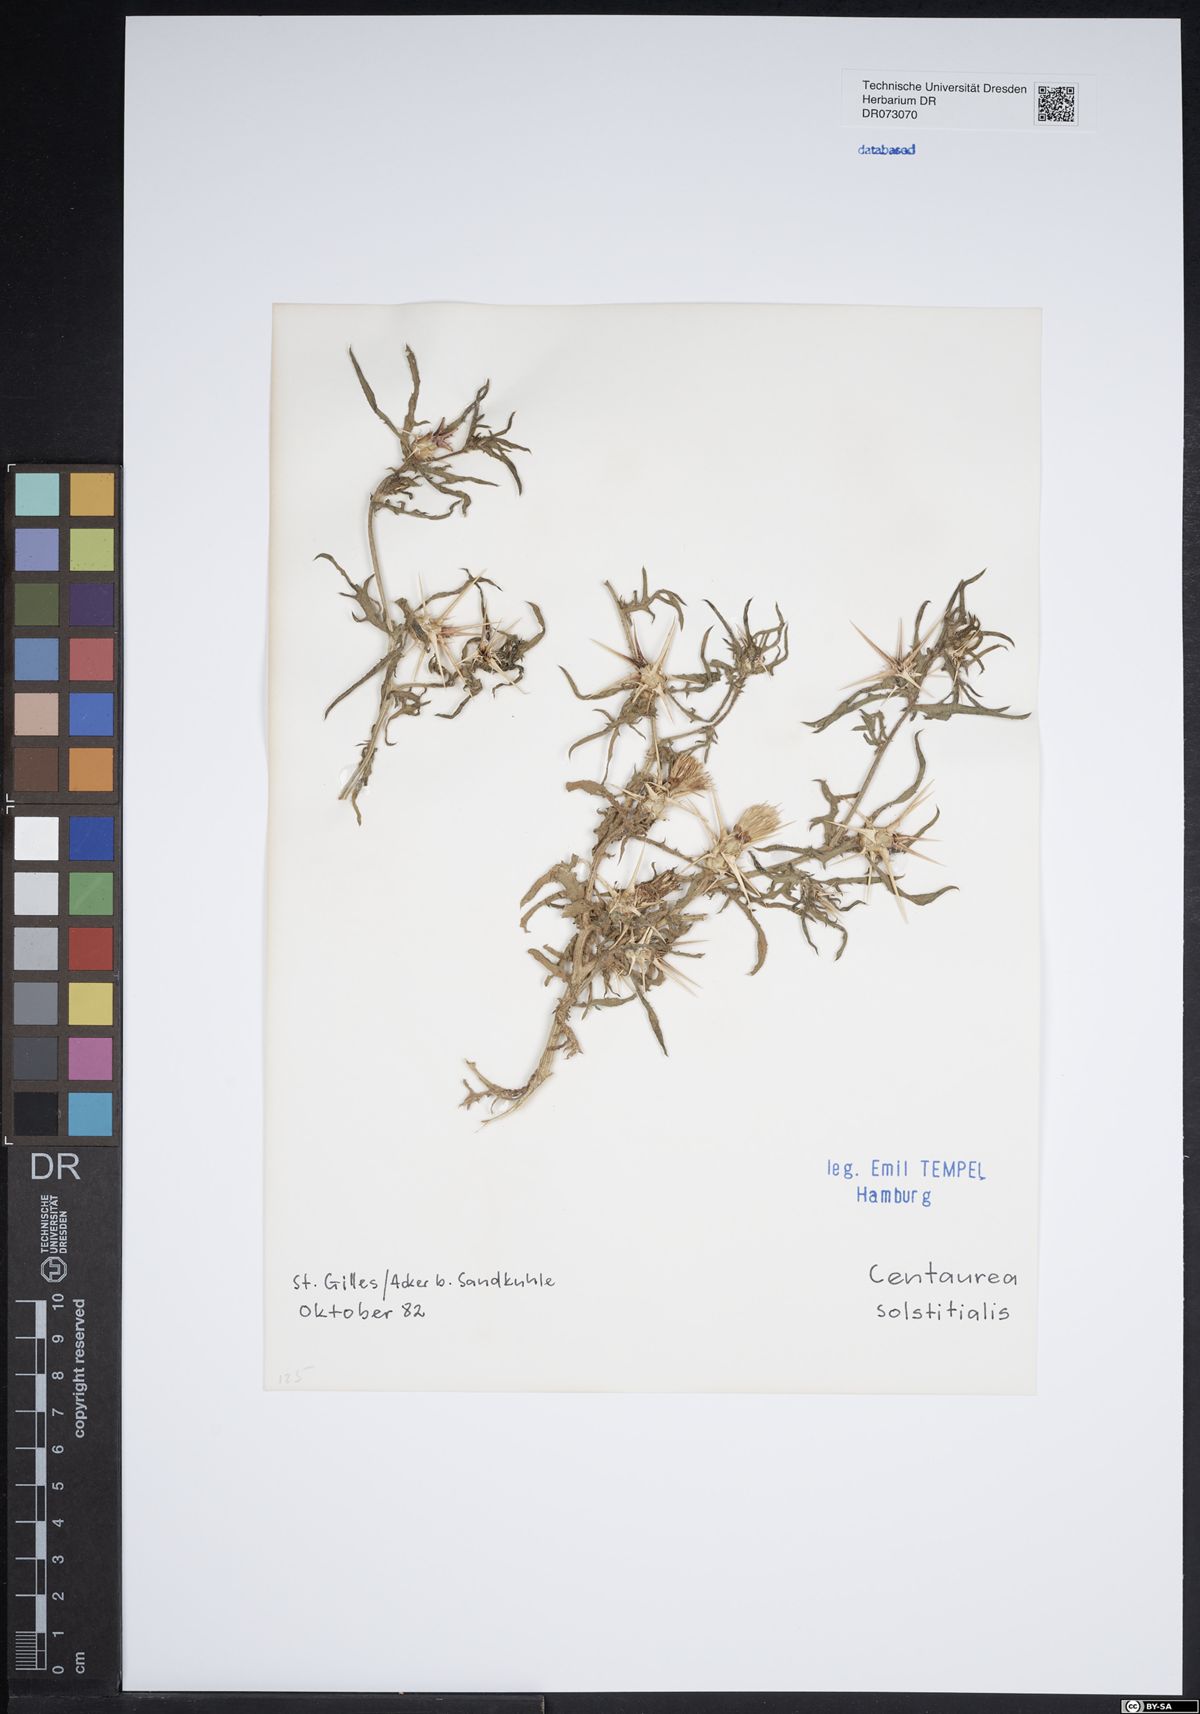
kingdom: Plantae
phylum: Tracheophyta
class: Magnoliopsida
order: Asterales
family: Asteraceae
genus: Centaurea
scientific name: Centaurea solstitialis
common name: Yellow star-thistle
